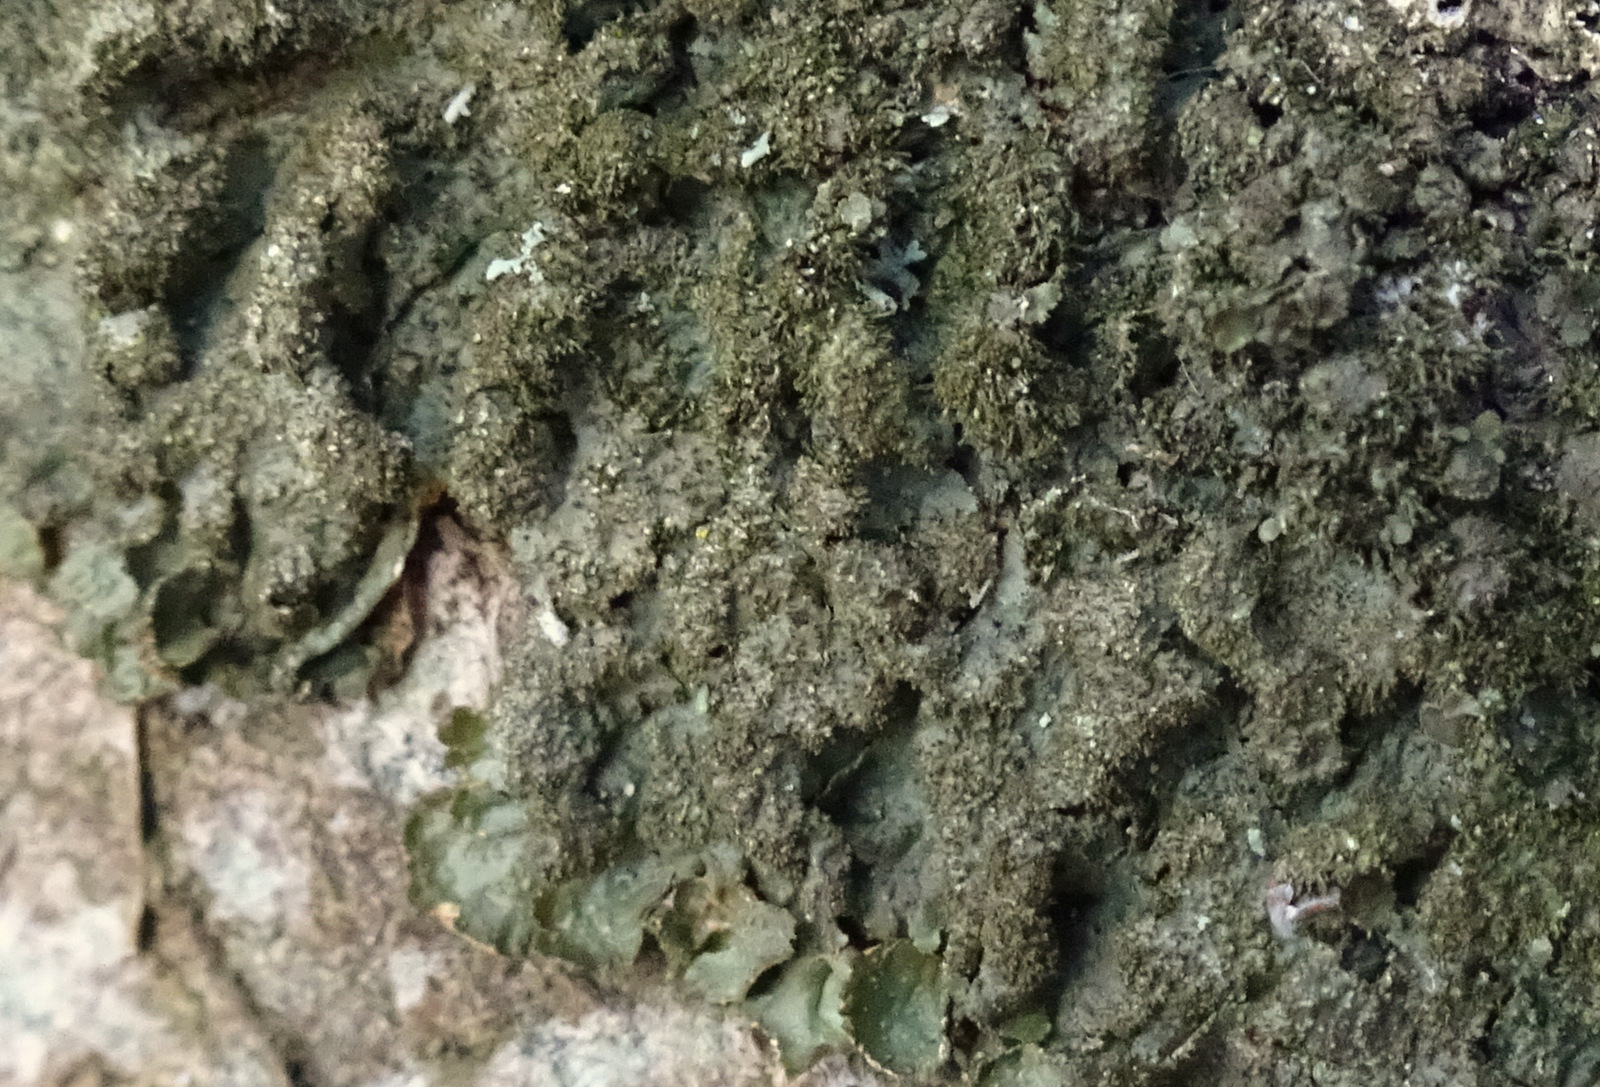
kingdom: Fungi
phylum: Ascomycota
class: Lecanoromycetes
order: Lecanorales
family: Parmeliaceae
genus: Melanelixia
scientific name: Melanelixia glabratula
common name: glinsende skållav
